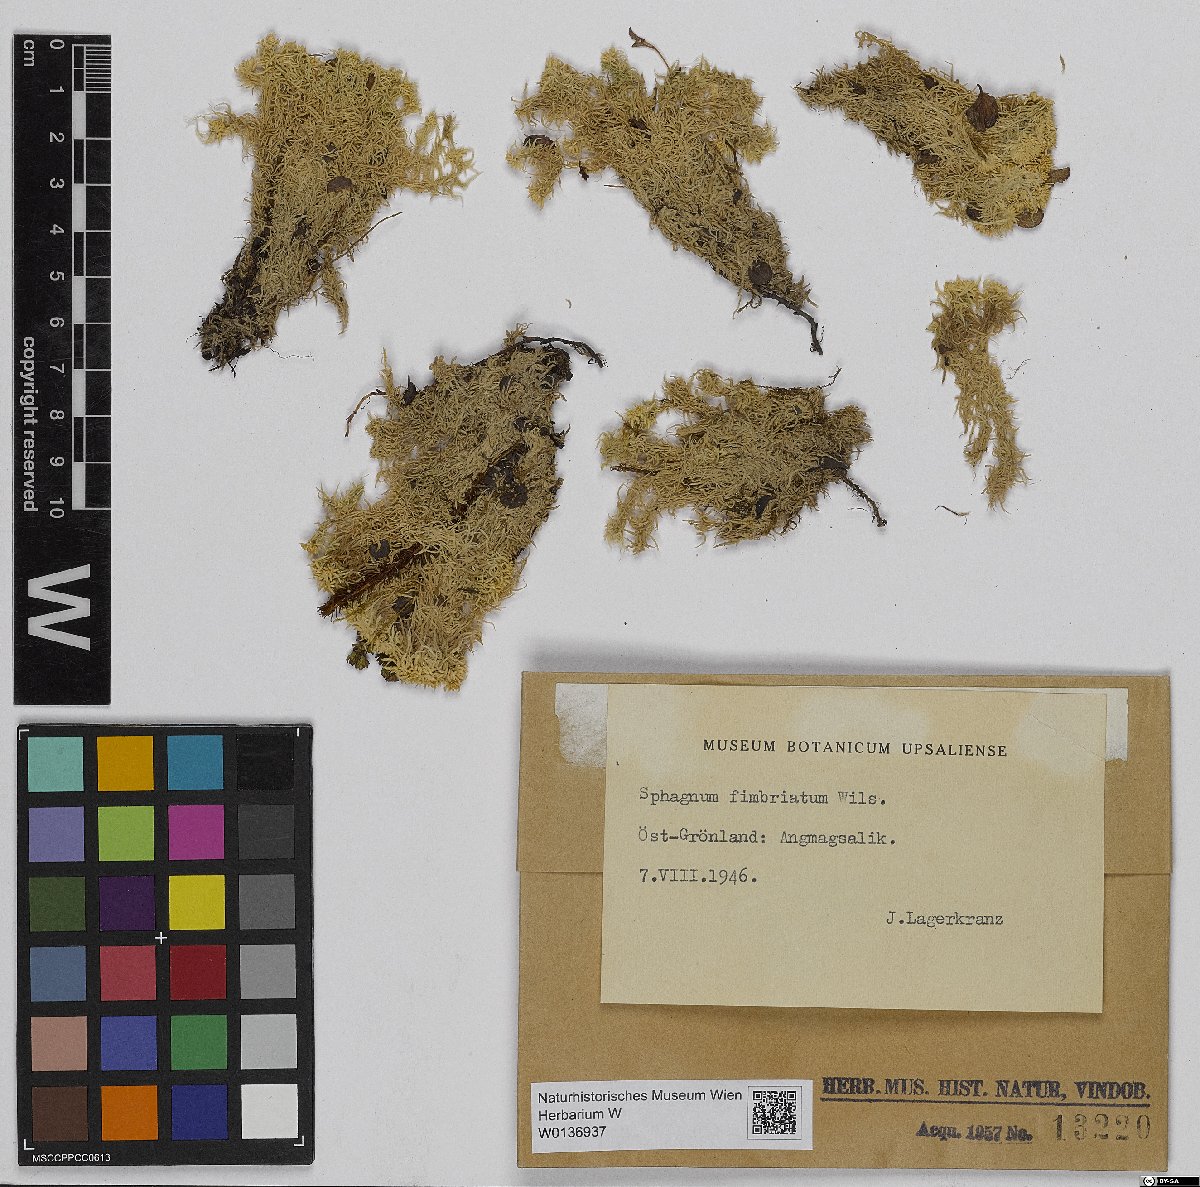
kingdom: Plantae
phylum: Bryophyta
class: Sphagnopsida
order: Sphagnales
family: Sphagnaceae
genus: Sphagnum
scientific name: Sphagnum fimbriatum
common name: Fringed peat moss
